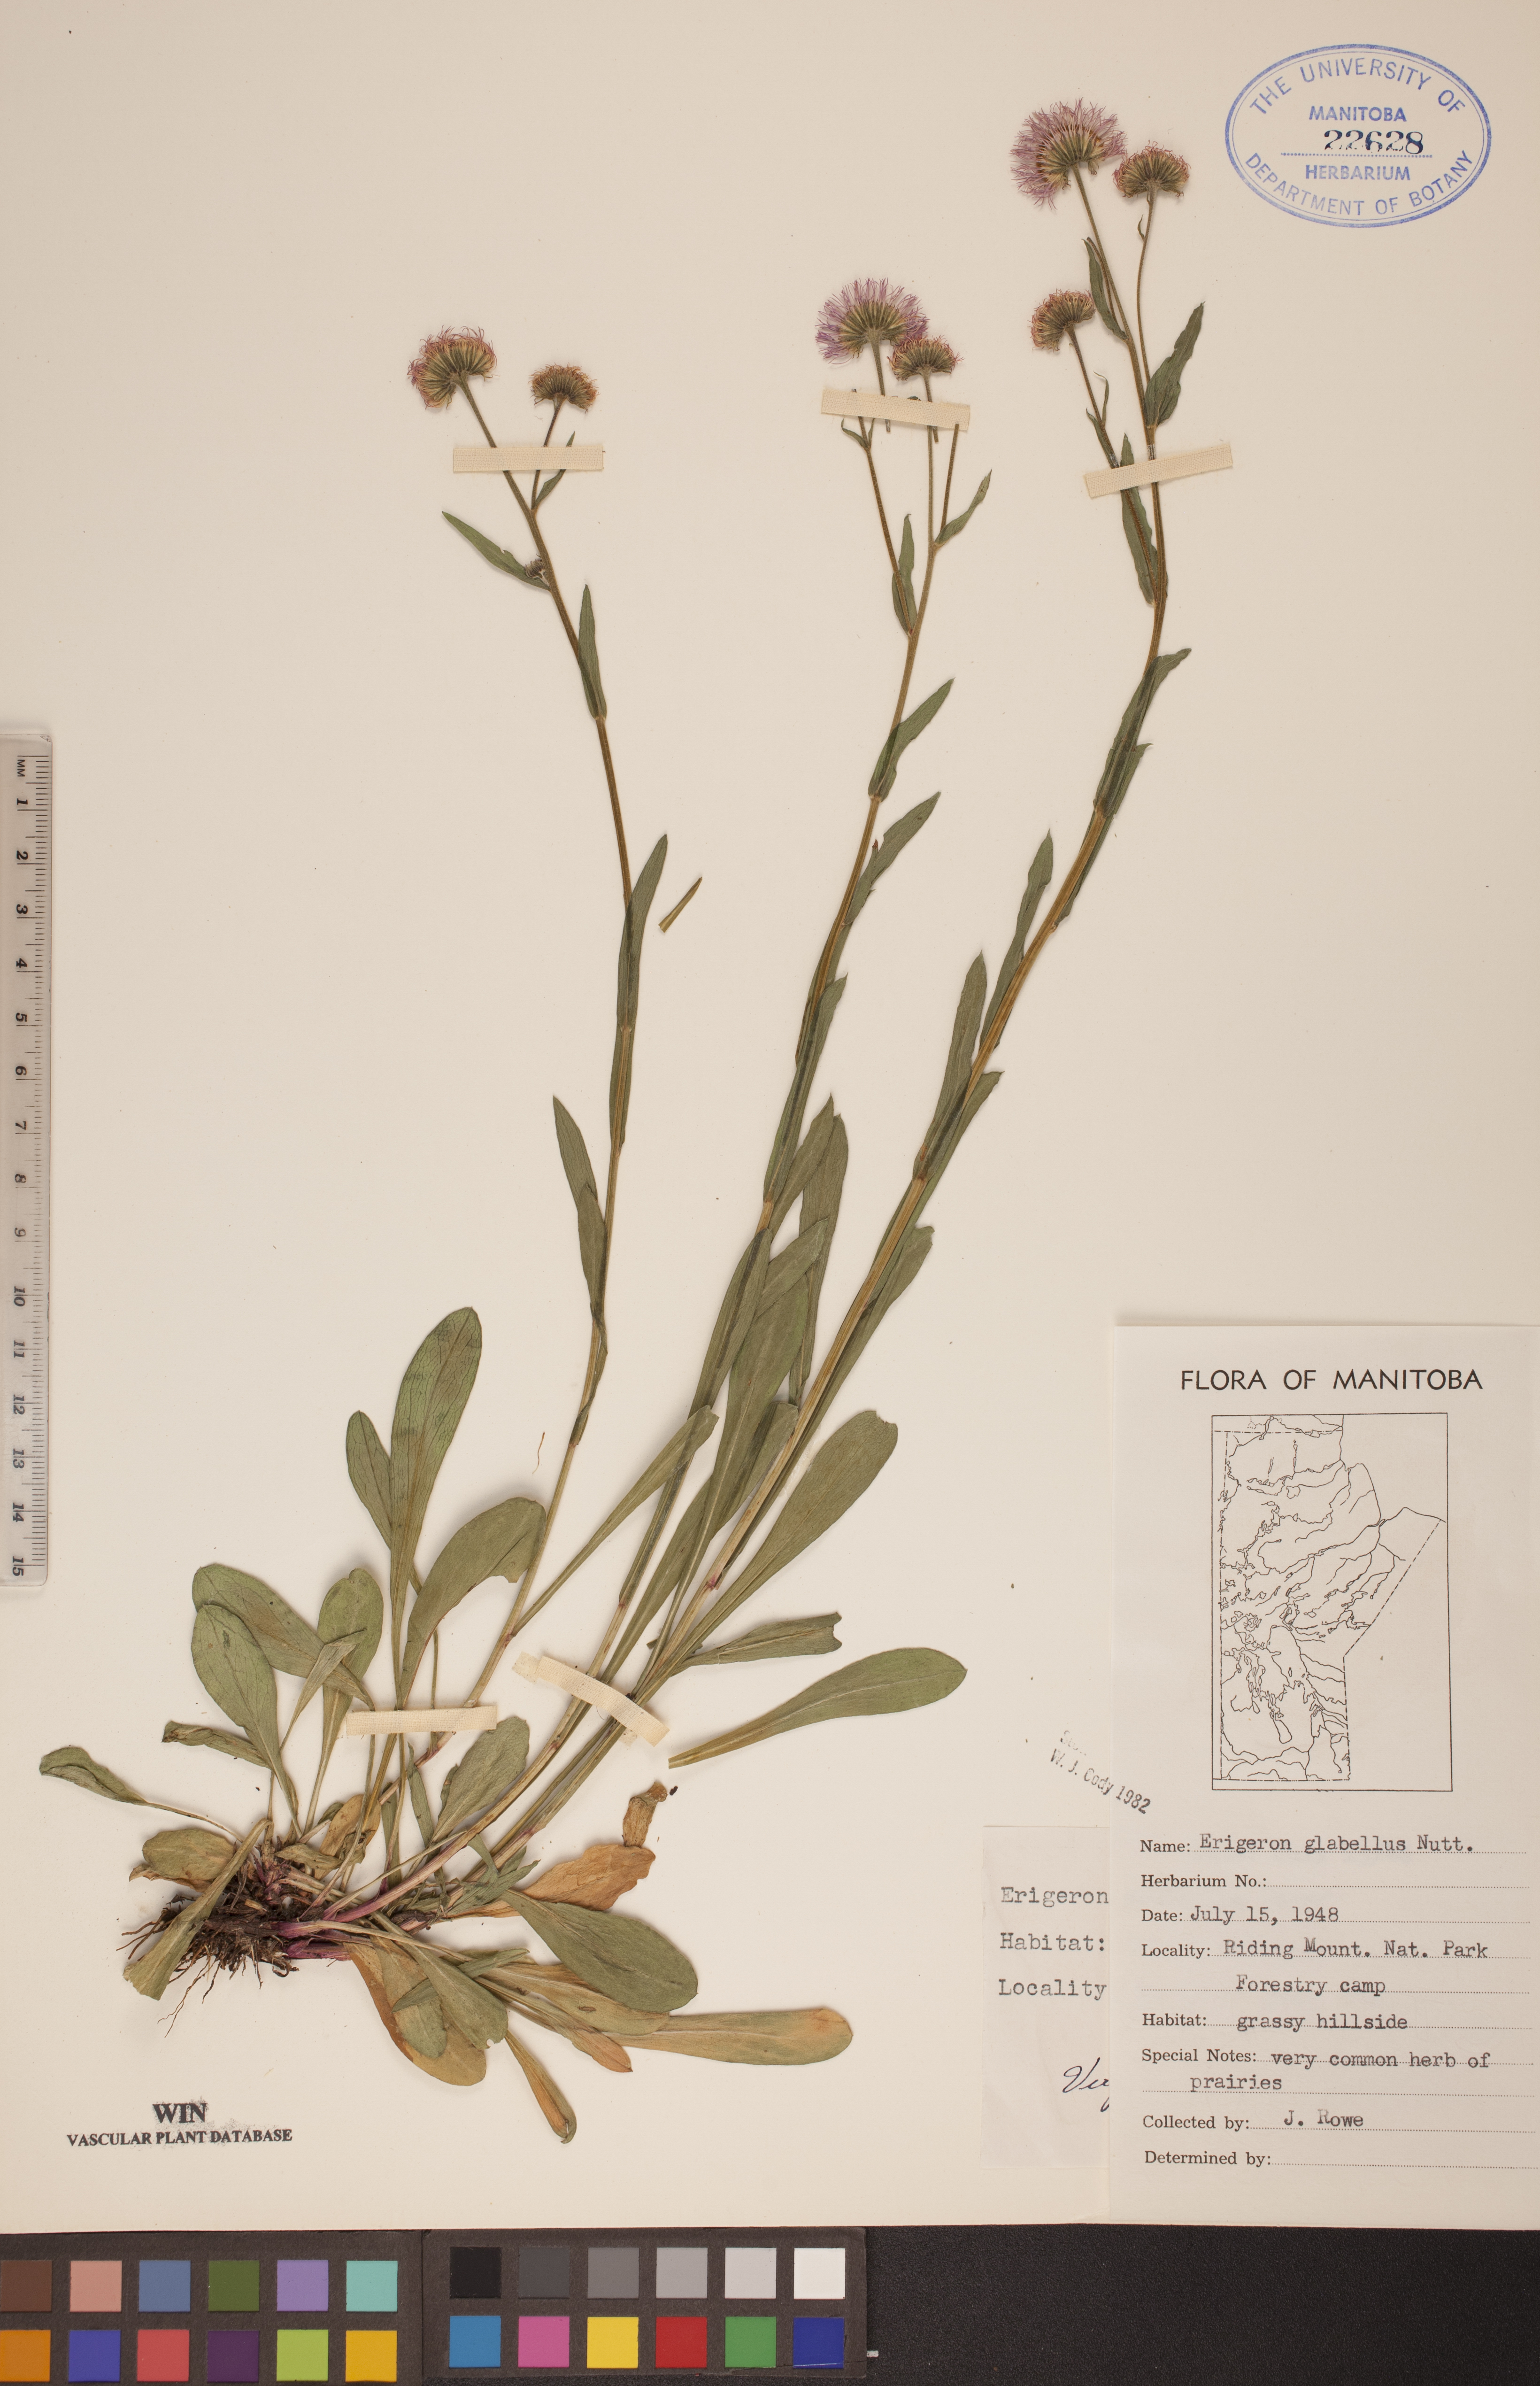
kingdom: Plantae
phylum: Tracheophyta
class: Magnoliopsida
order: Asterales
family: Asteraceae
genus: Erigeron
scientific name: Erigeron glabellus
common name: Smooth fleabane
